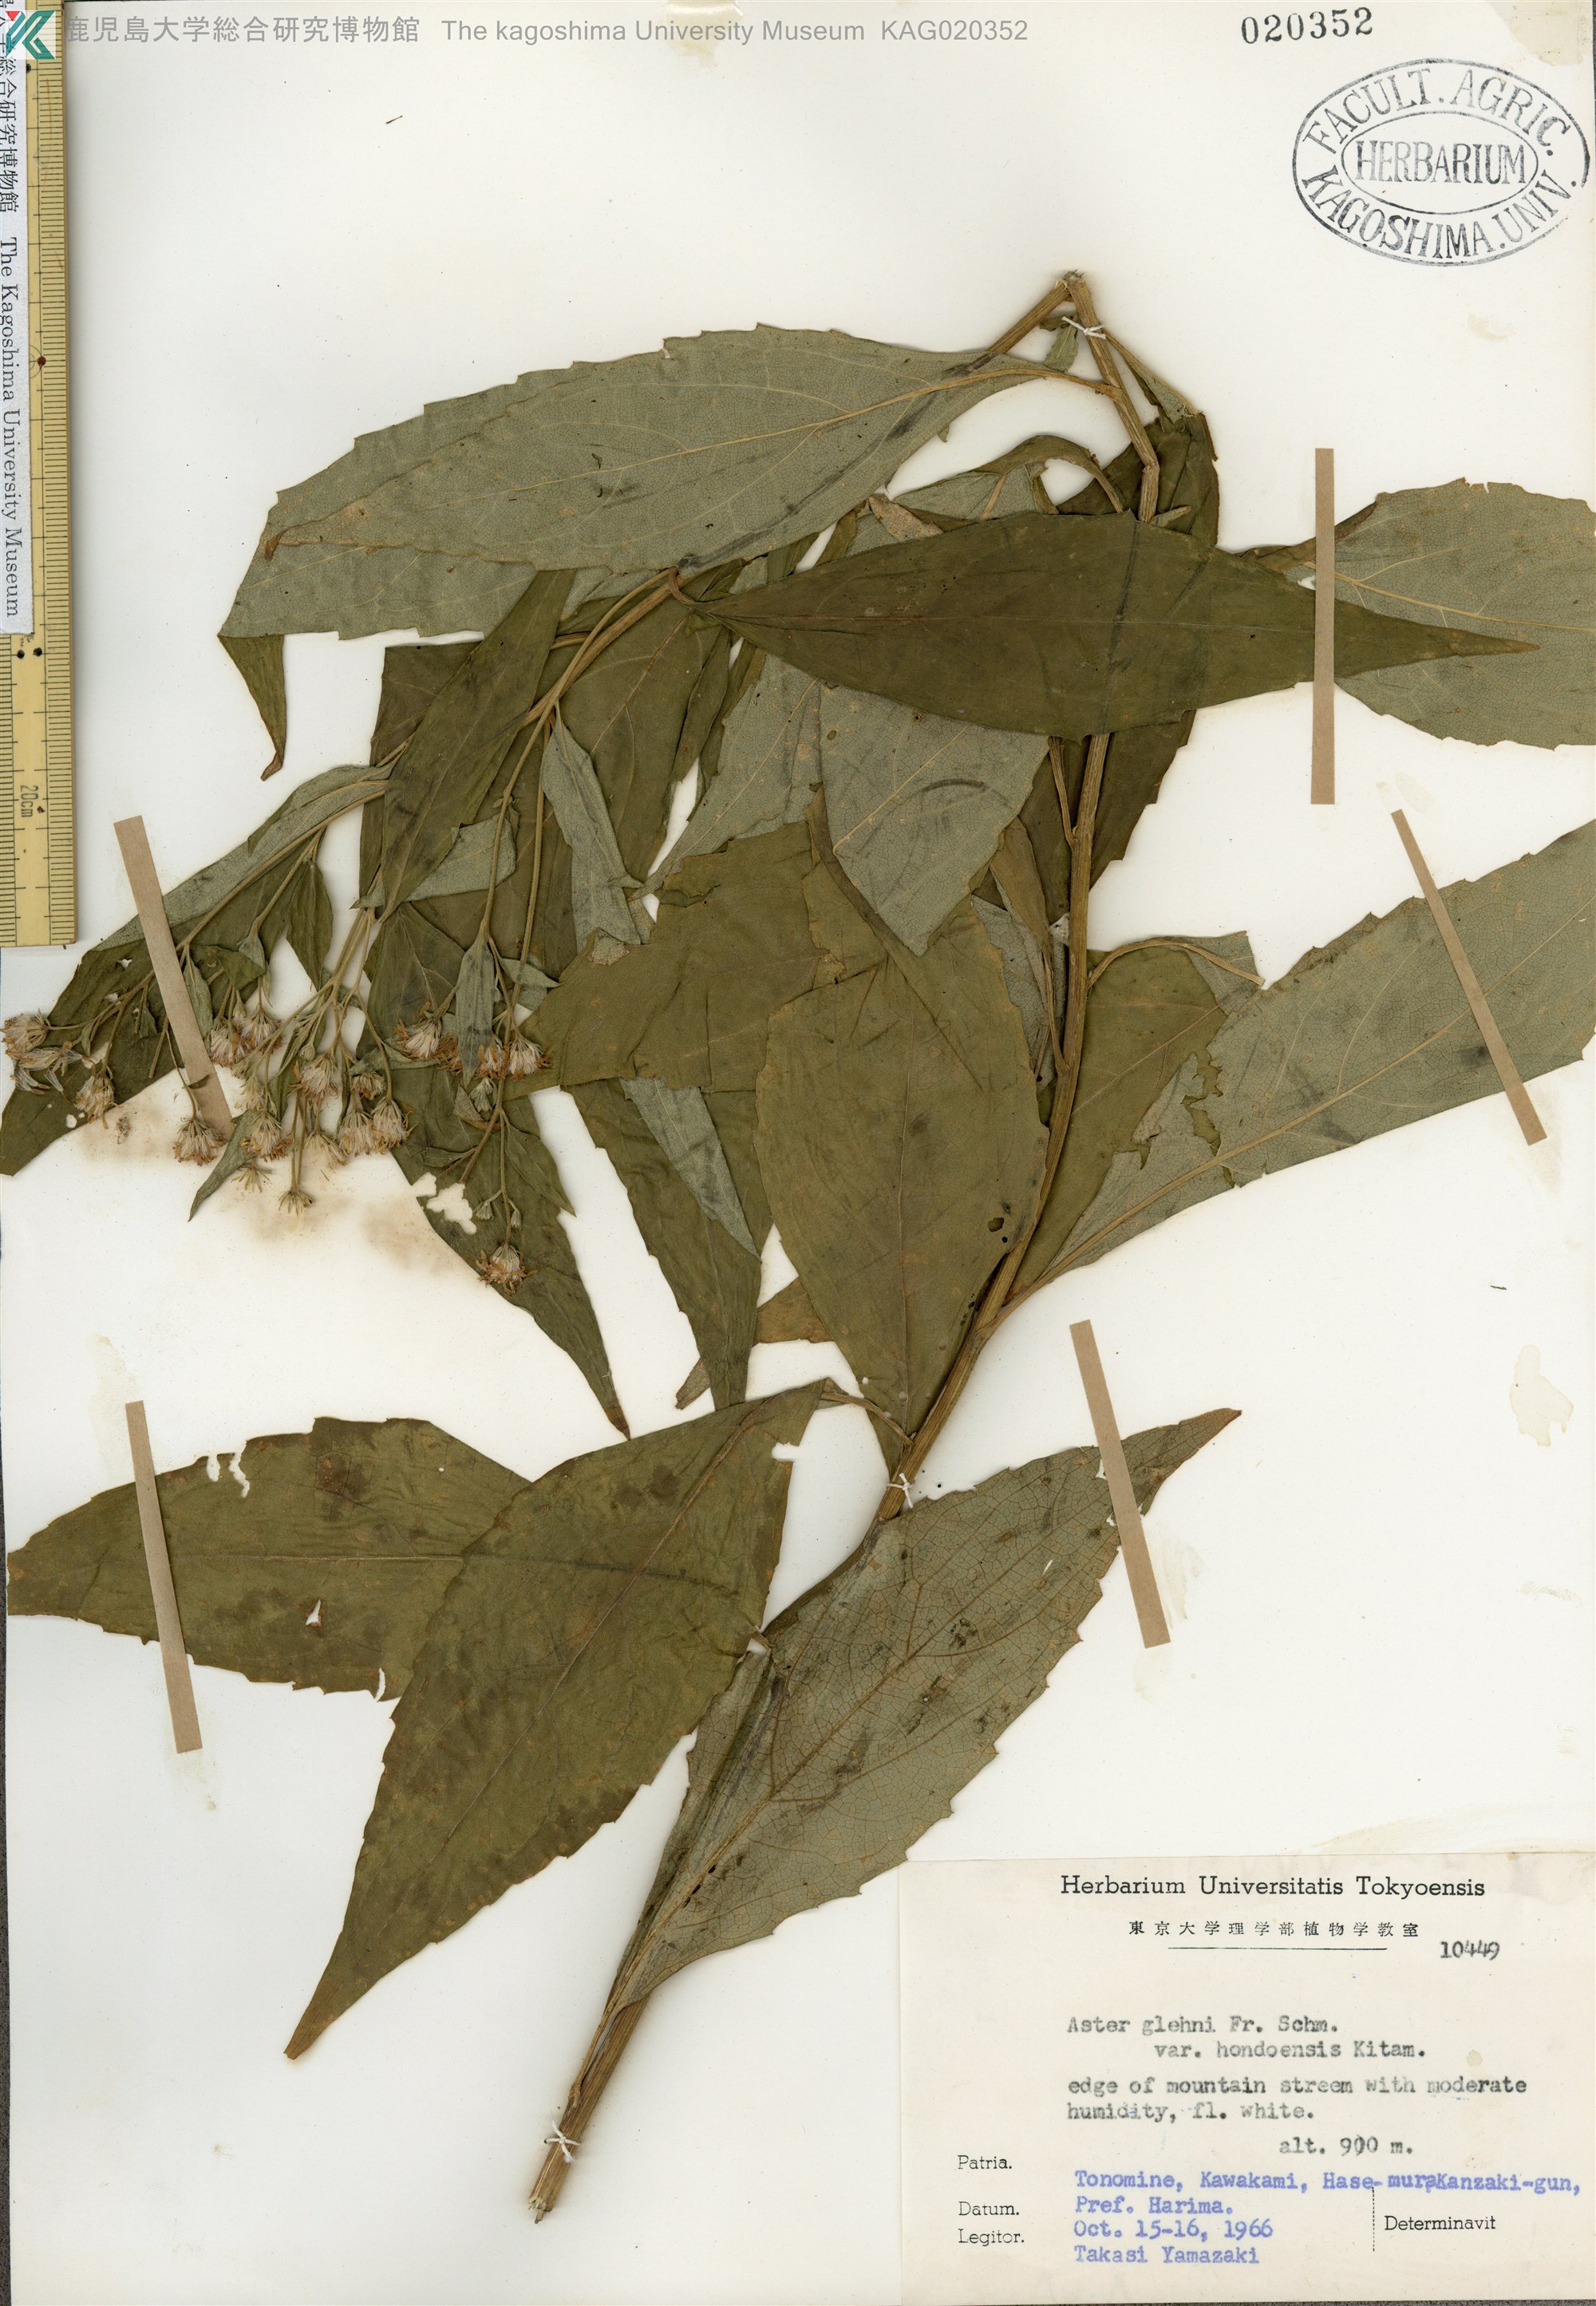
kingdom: Plantae
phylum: Tracheophyta
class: Magnoliopsida
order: Asterales
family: Asteraceae
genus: Kitamuria
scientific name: Kitamuria glehnii
